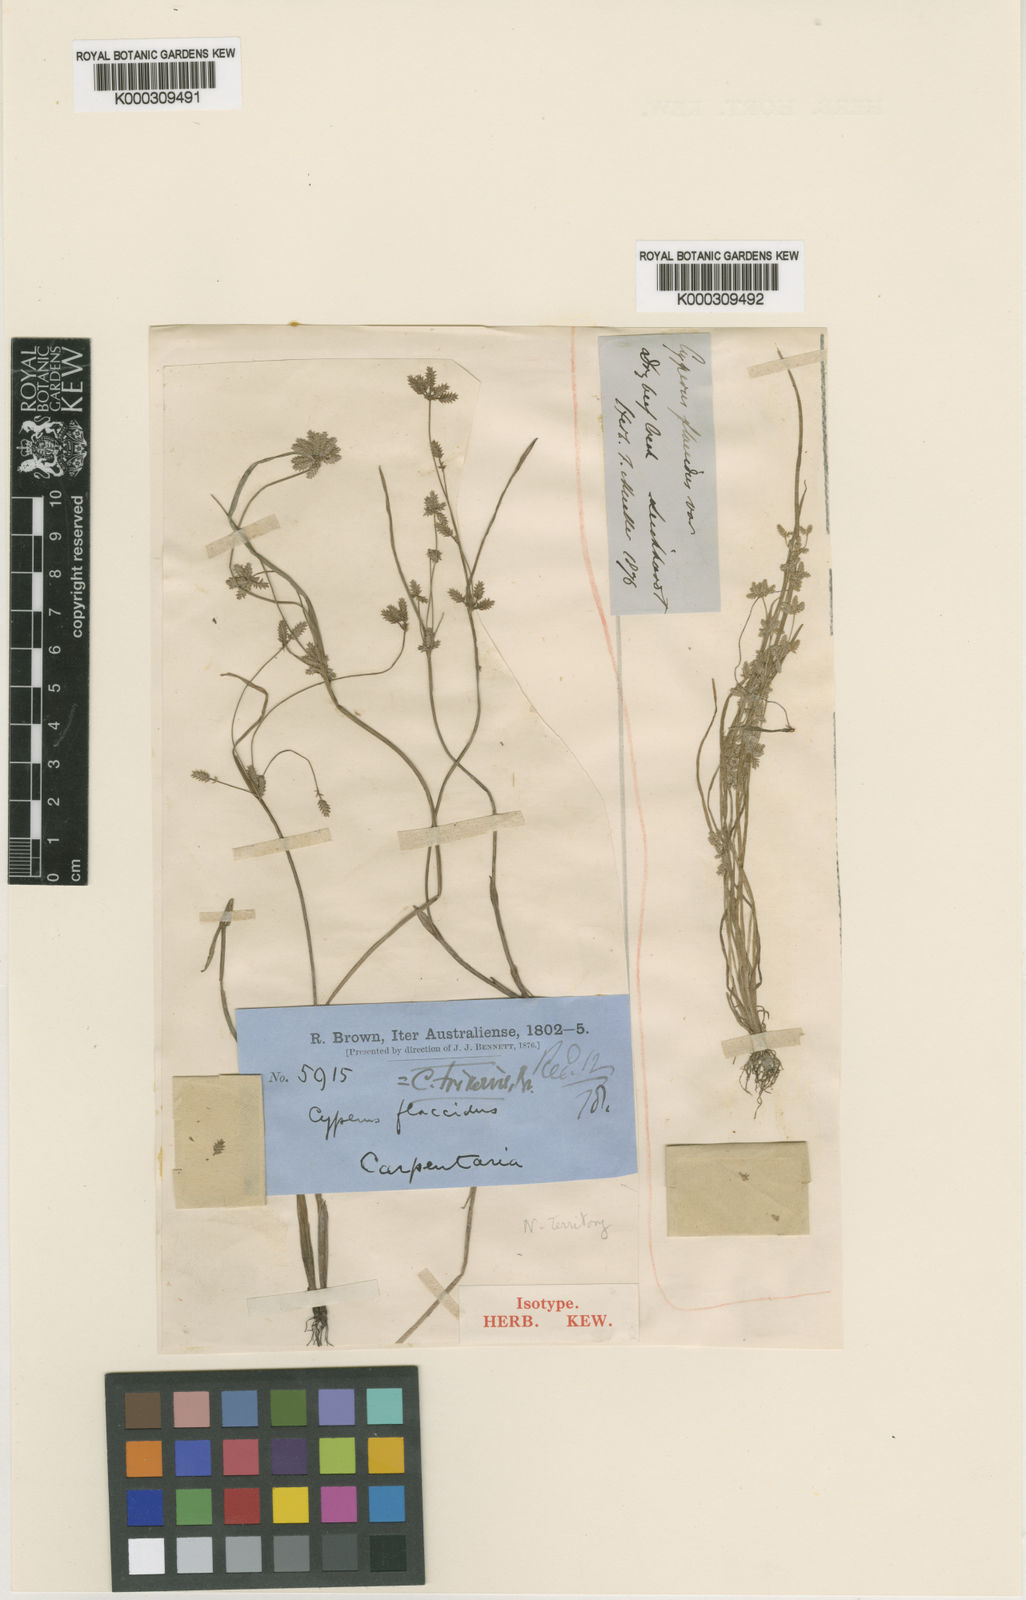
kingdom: Plantae
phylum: Tracheophyta
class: Liliopsida
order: Poales
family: Cyperaceae
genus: Cyperus
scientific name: Cyperus flaccidus
